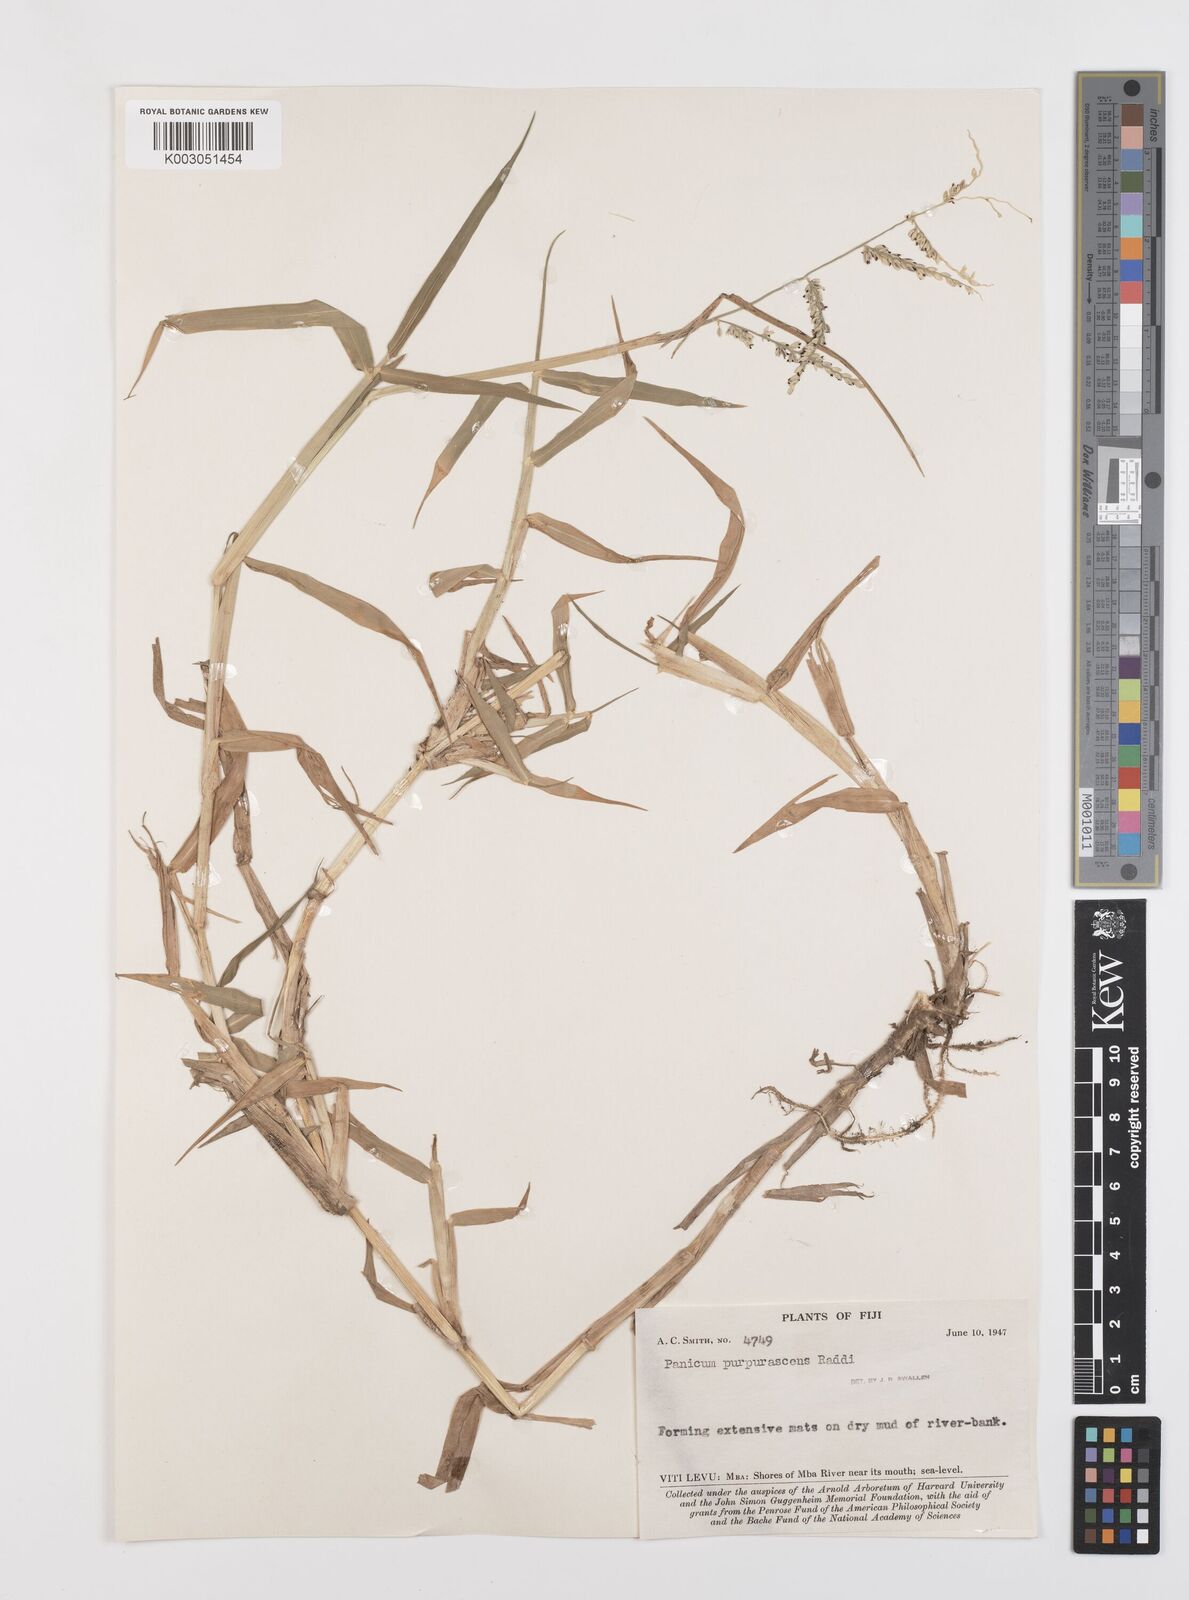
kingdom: Plantae
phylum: Tracheophyta
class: Liliopsida
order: Poales
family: Poaceae
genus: Urochloa
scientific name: Urochloa mutica
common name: Para grass
